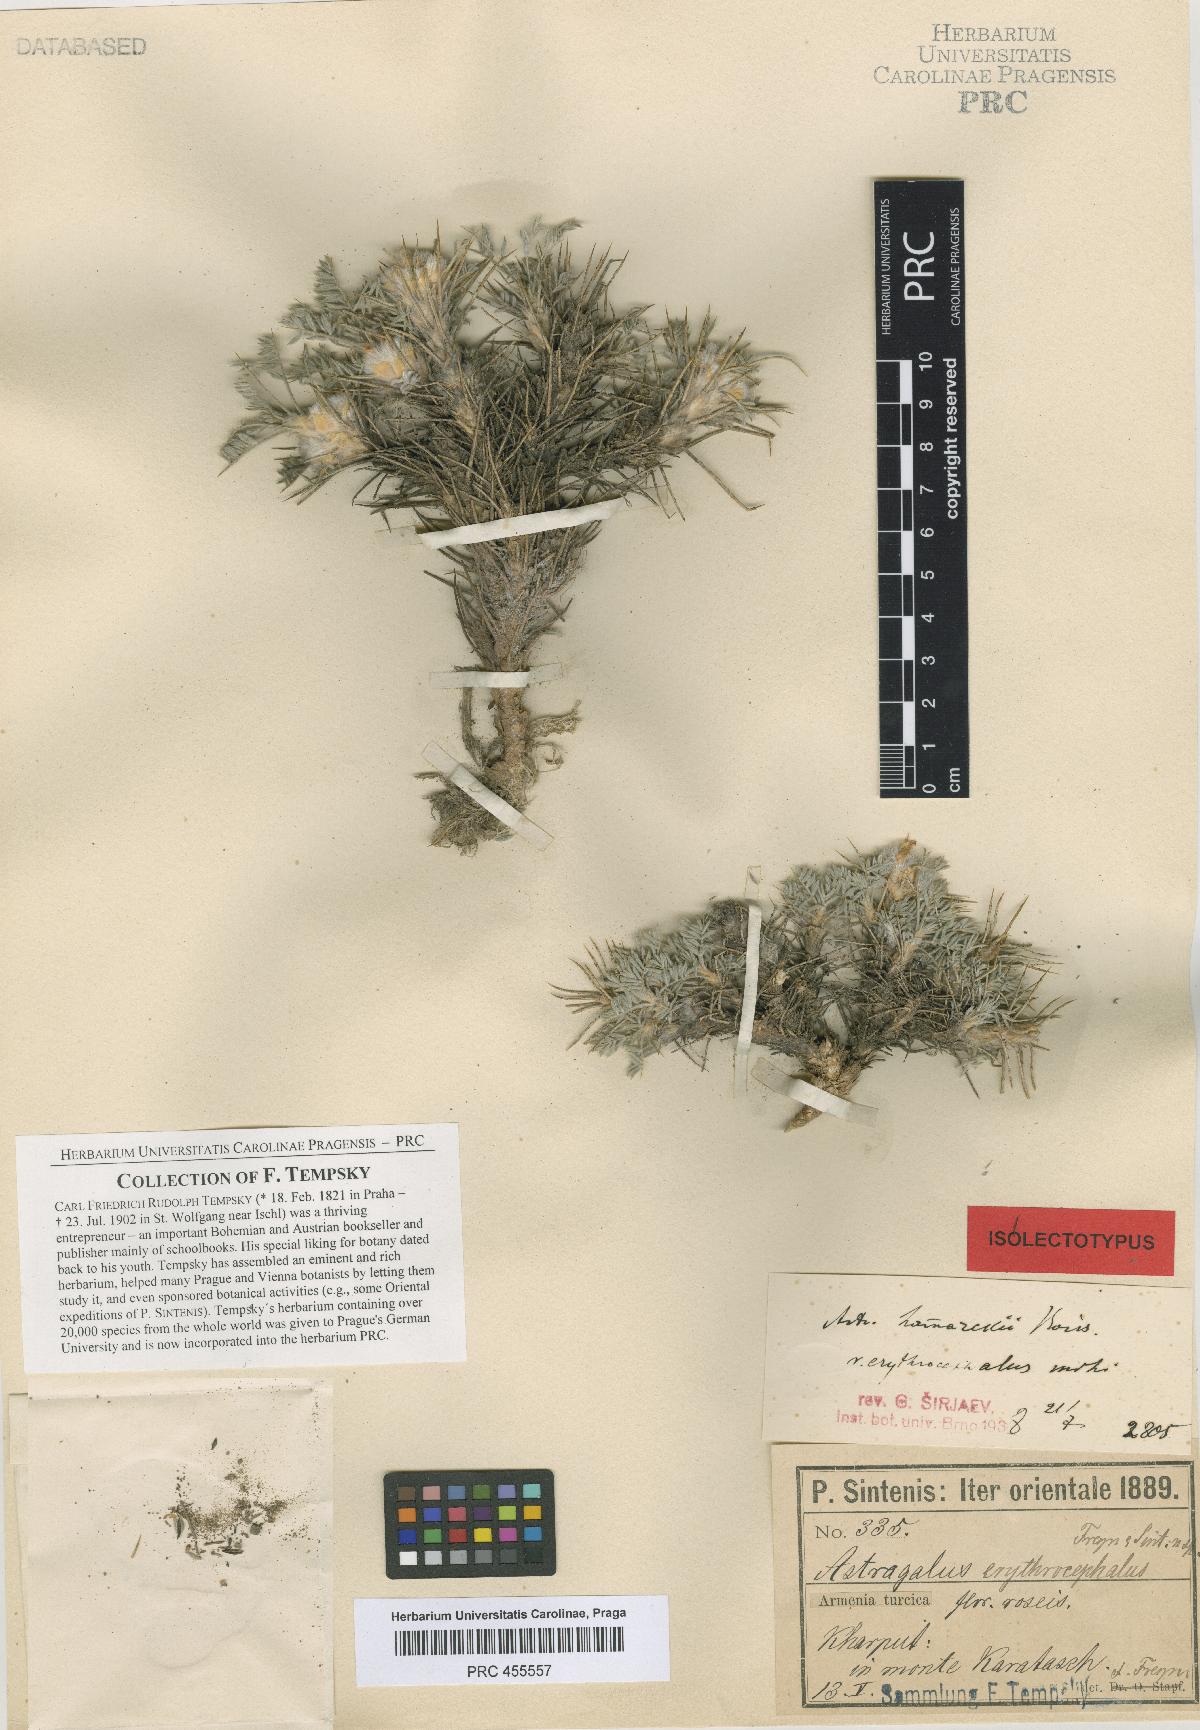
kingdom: Plantae
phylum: Tracheophyta
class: Magnoliopsida
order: Fabales
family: Fabaceae
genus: Astragalus
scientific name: Astragalus lamarckii
